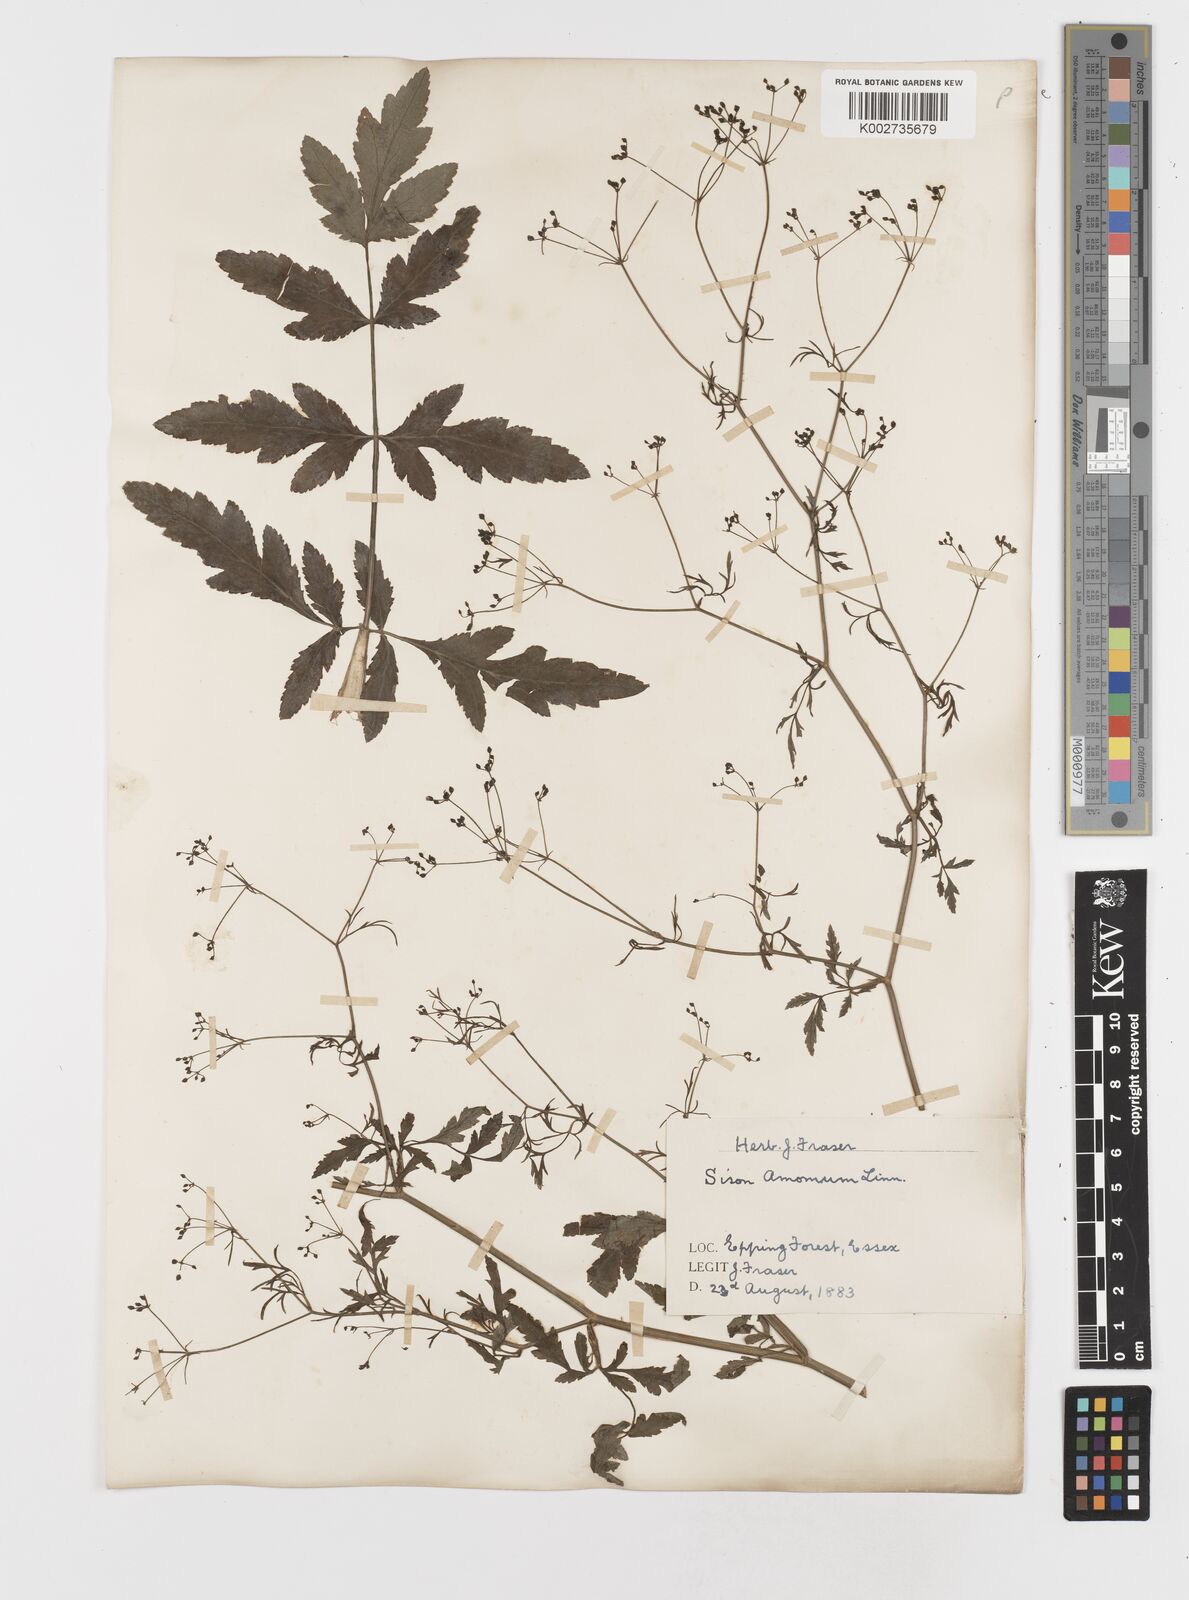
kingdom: Plantae
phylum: Tracheophyta
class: Magnoliopsida
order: Apiales
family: Apiaceae
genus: Sison
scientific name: Sison amomum
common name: Stone-parsley
